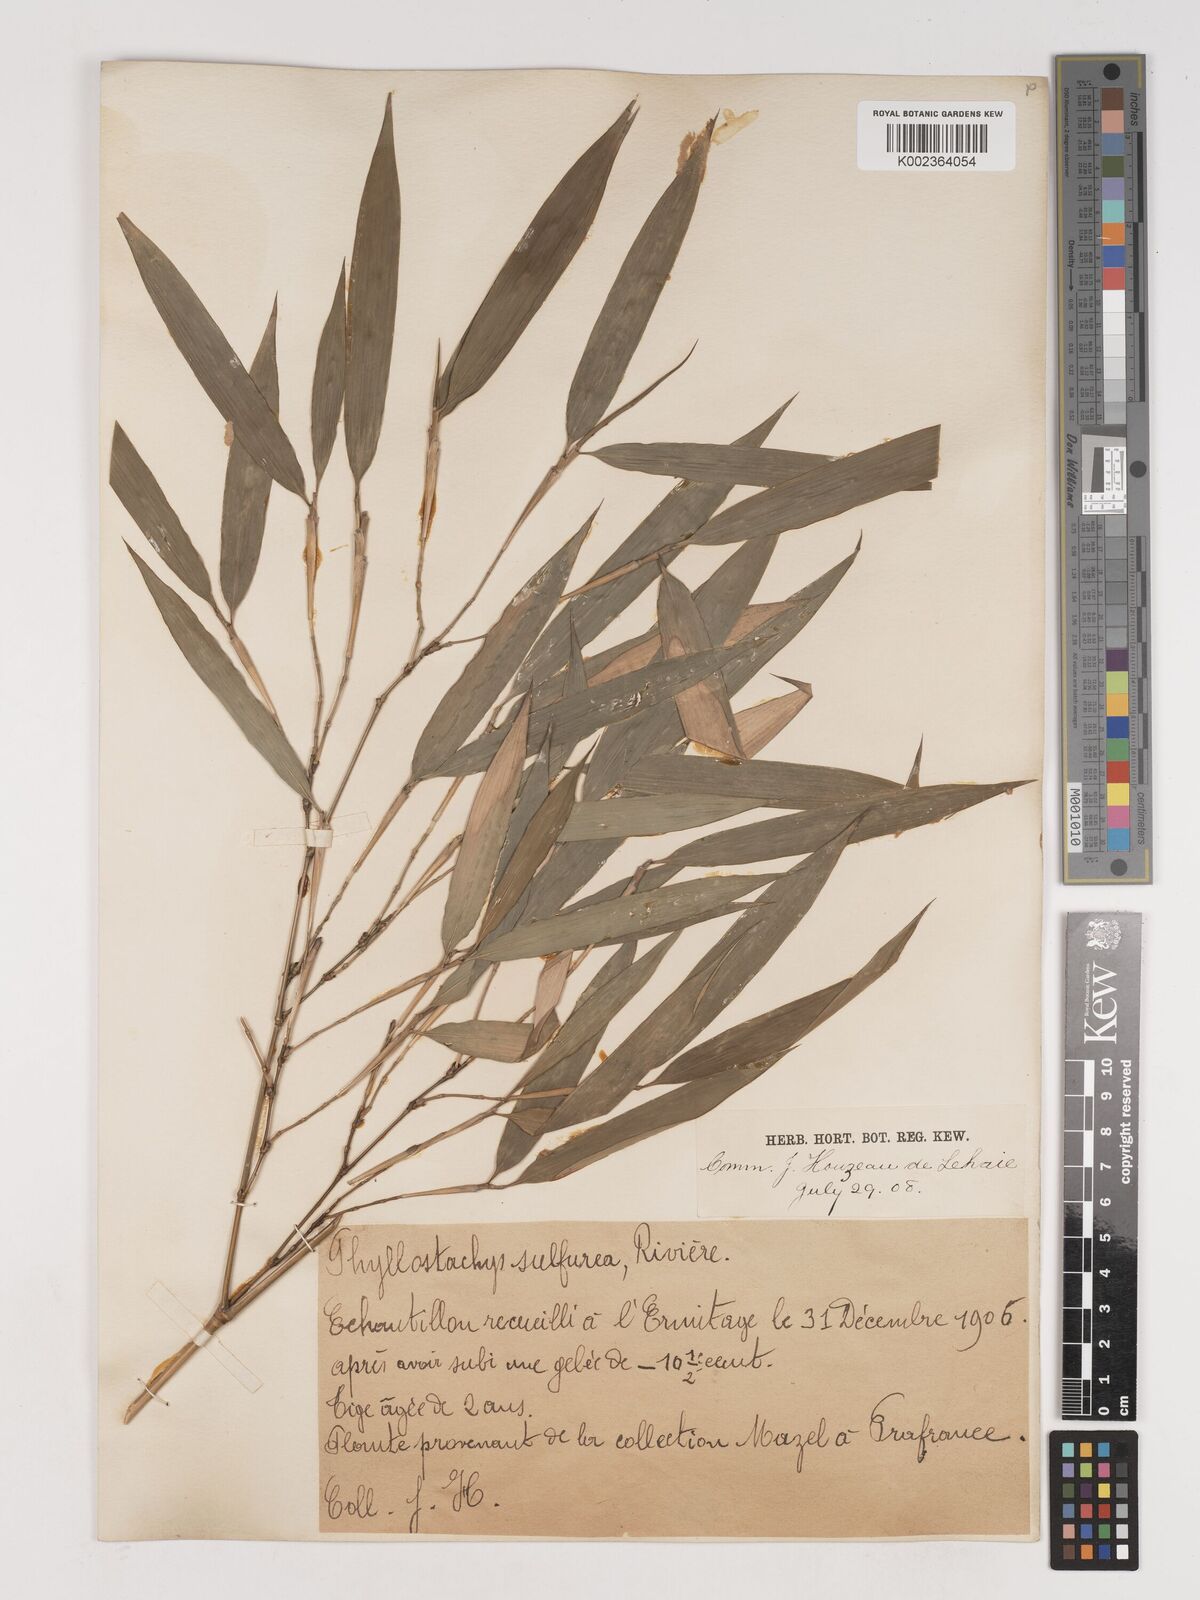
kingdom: Plantae
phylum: Tracheophyta
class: Liliopsida
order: Poales
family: Poaceae
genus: Phyllostachys
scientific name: Phyllostachys sulphurea
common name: Sulphur bamboo
